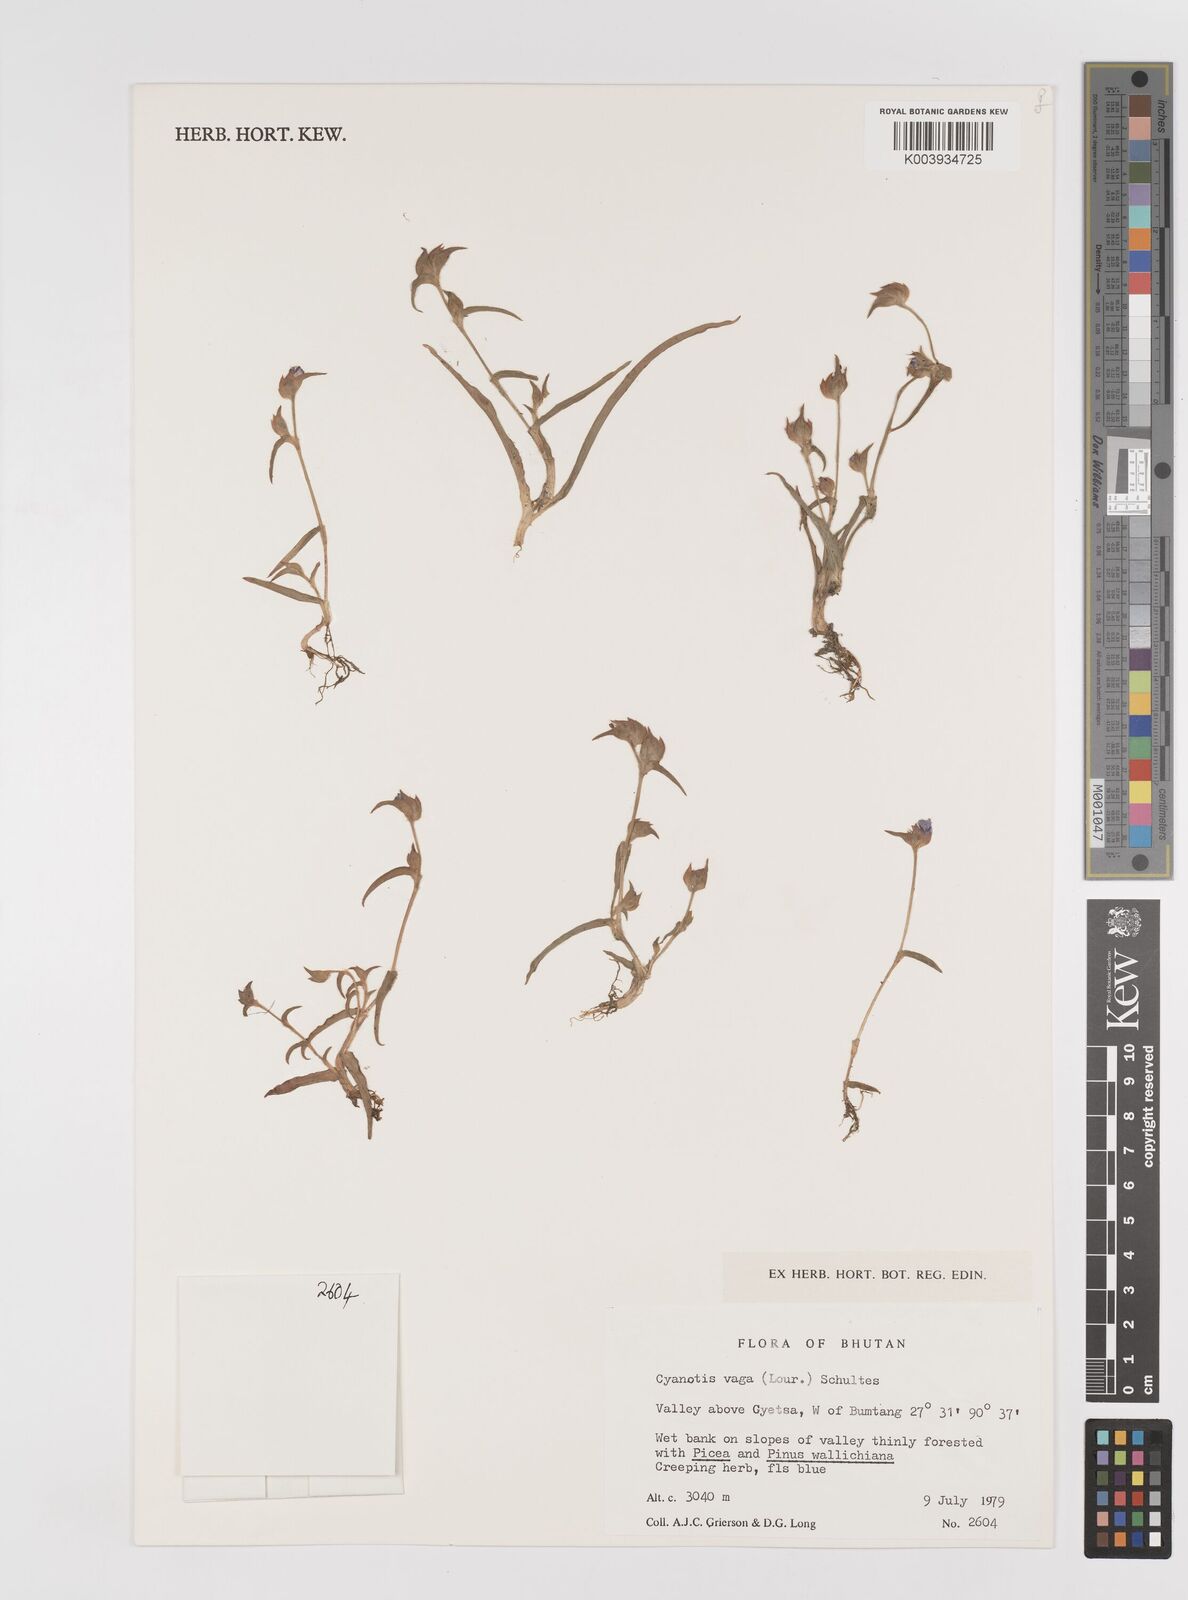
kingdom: Plantae
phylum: Tracheophyta
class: Liliopsida
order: Commelinales
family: Commelinaceae
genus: Cyanotis
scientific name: Cyanotis vaga
